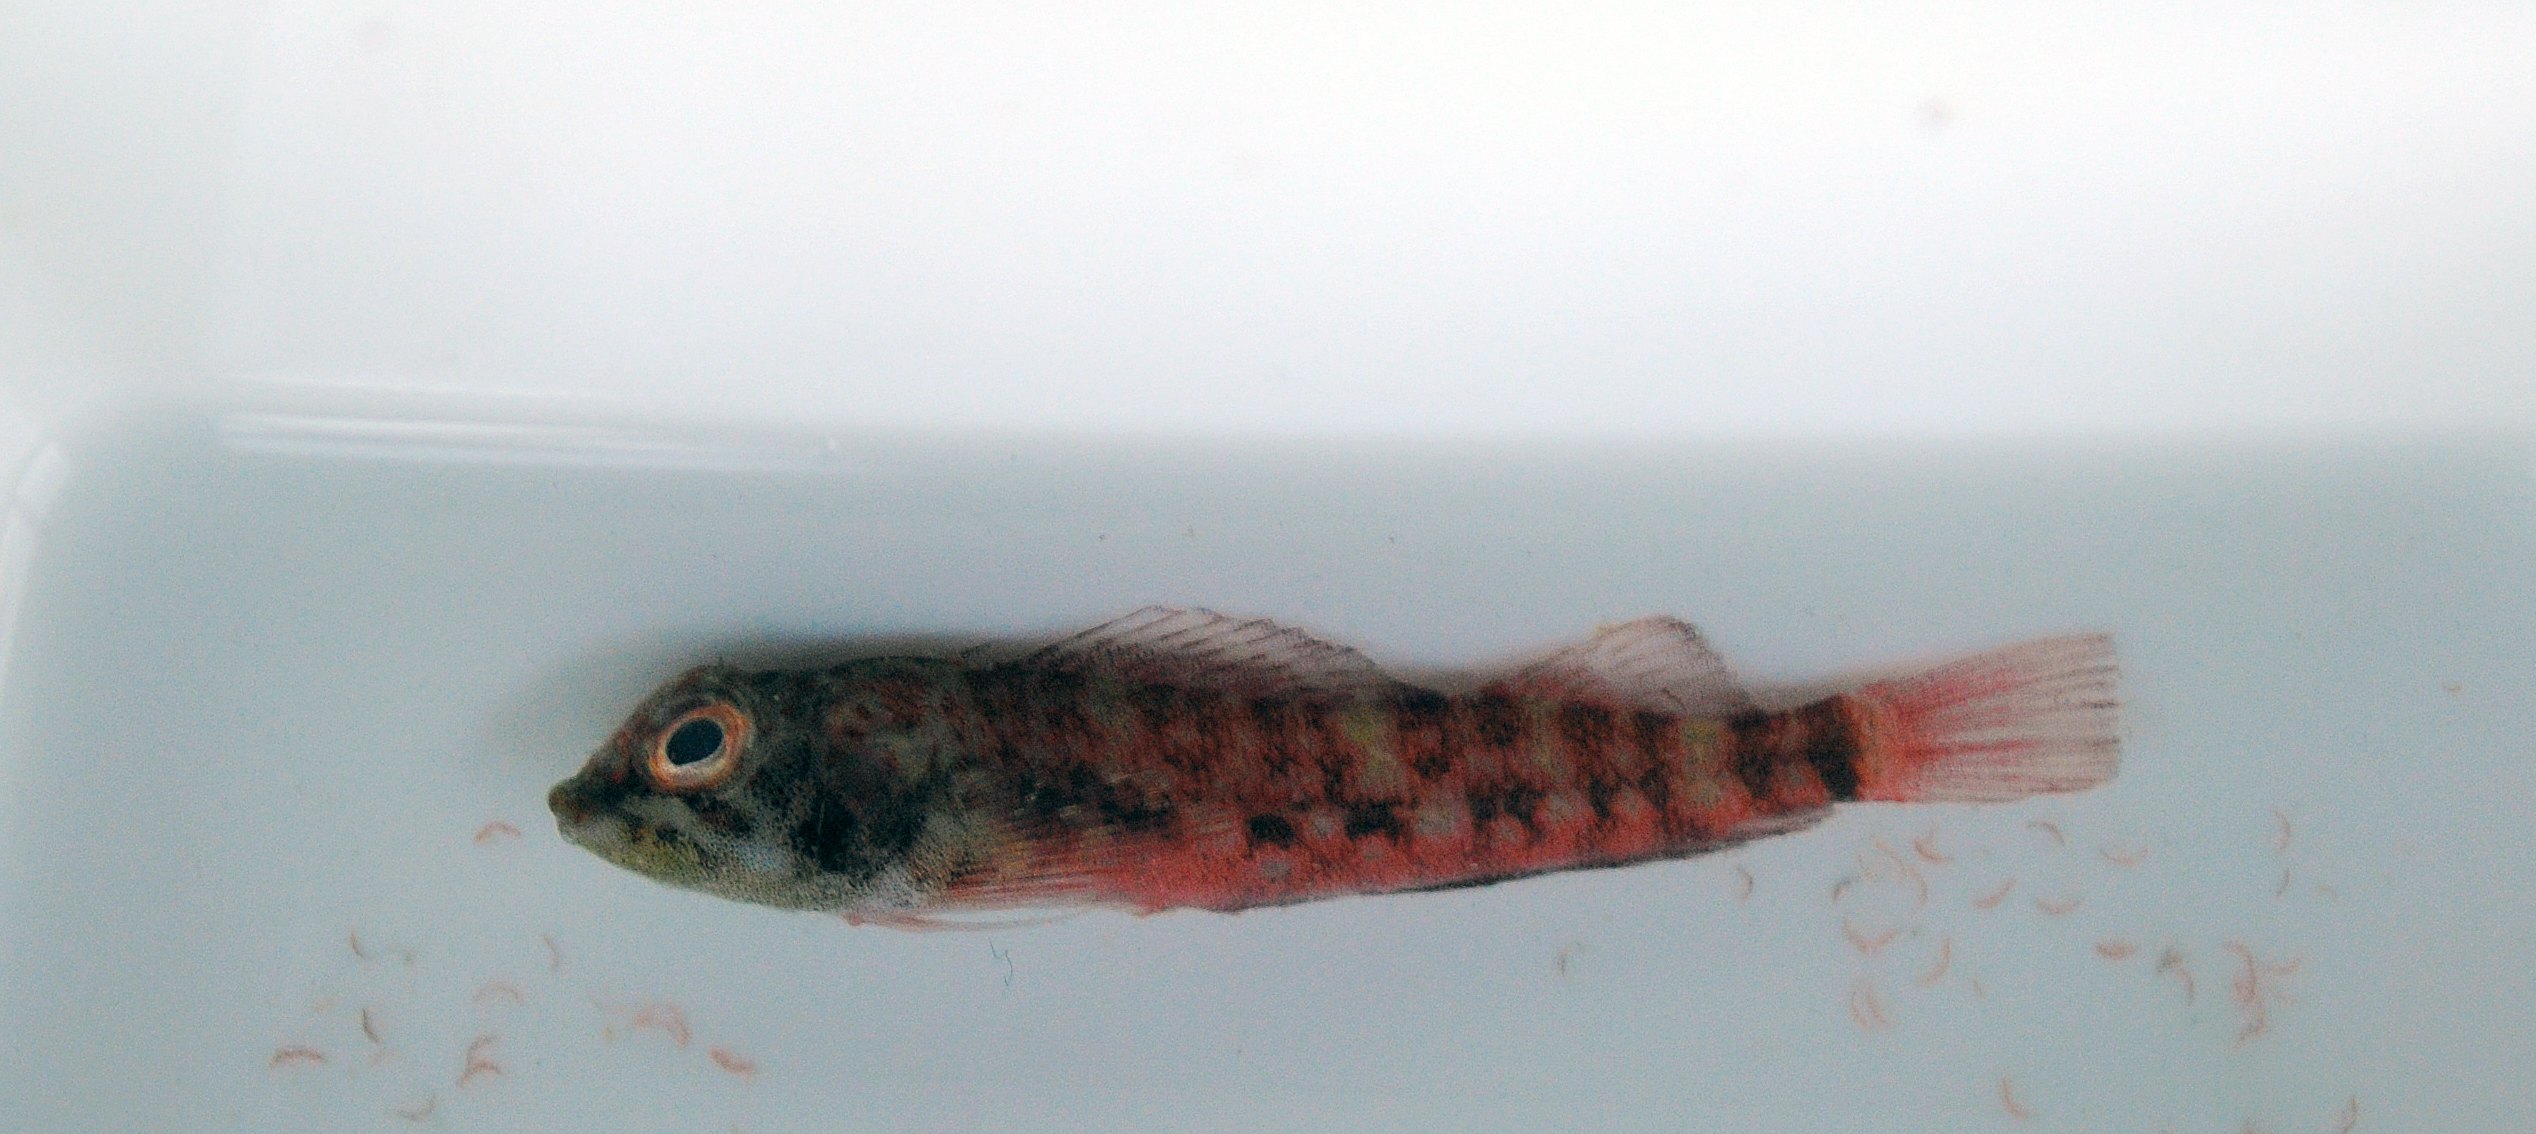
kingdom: Animalia
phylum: Chordata
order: Perciformes
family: Tripterygiidae
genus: Enneapterygius
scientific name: Enneapterygius
